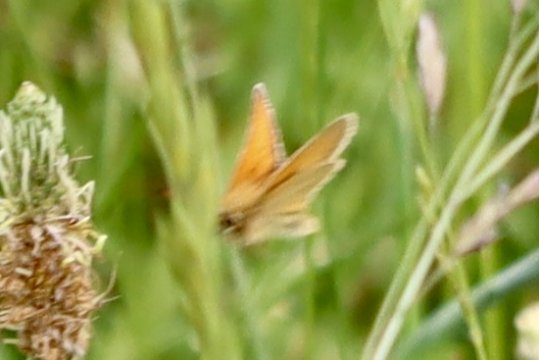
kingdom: Animalia
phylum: Arthropoda
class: Insecta
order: Lepidoptera
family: Hesperiidae
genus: Thymelicus
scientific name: Thymelicus lineola
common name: European Skipper
